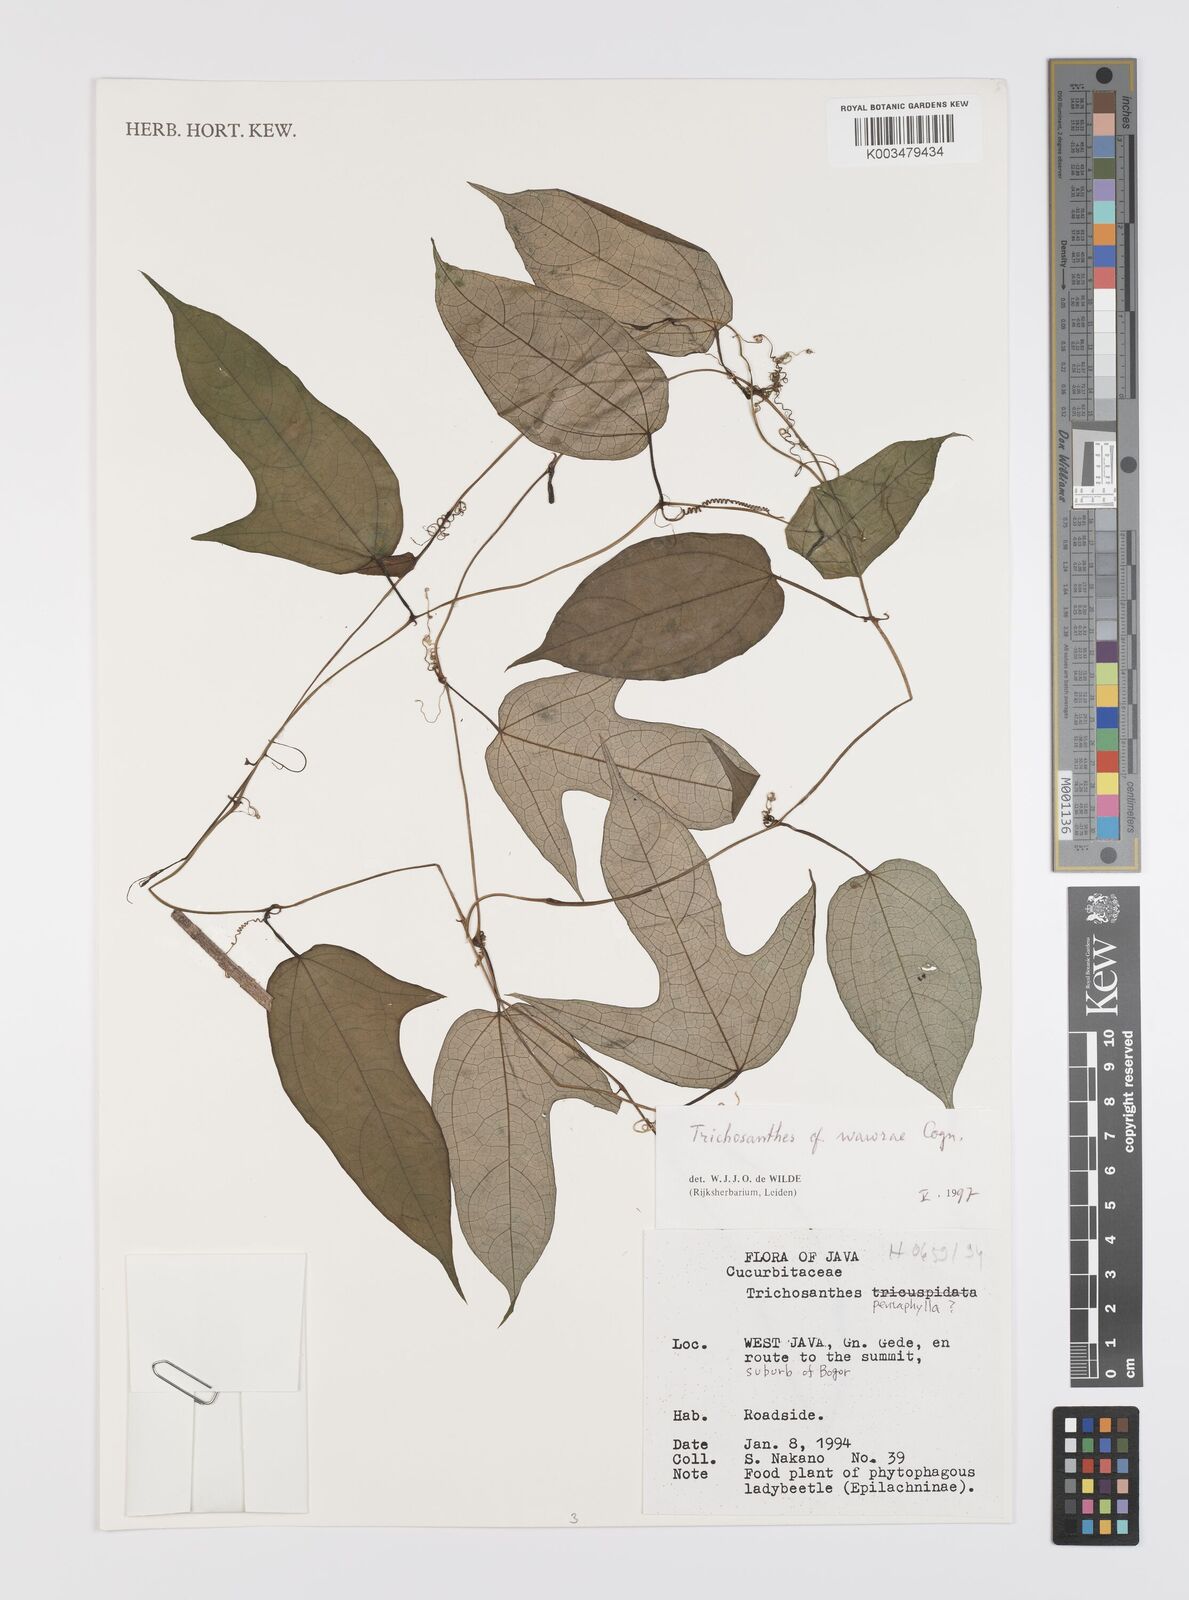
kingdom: Plantae
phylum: Tracheophyta
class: Magnoliopsida
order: Cucurbitales
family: Cucurbitaceae
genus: Trichosanthes
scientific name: Trichosanthes wawrae
